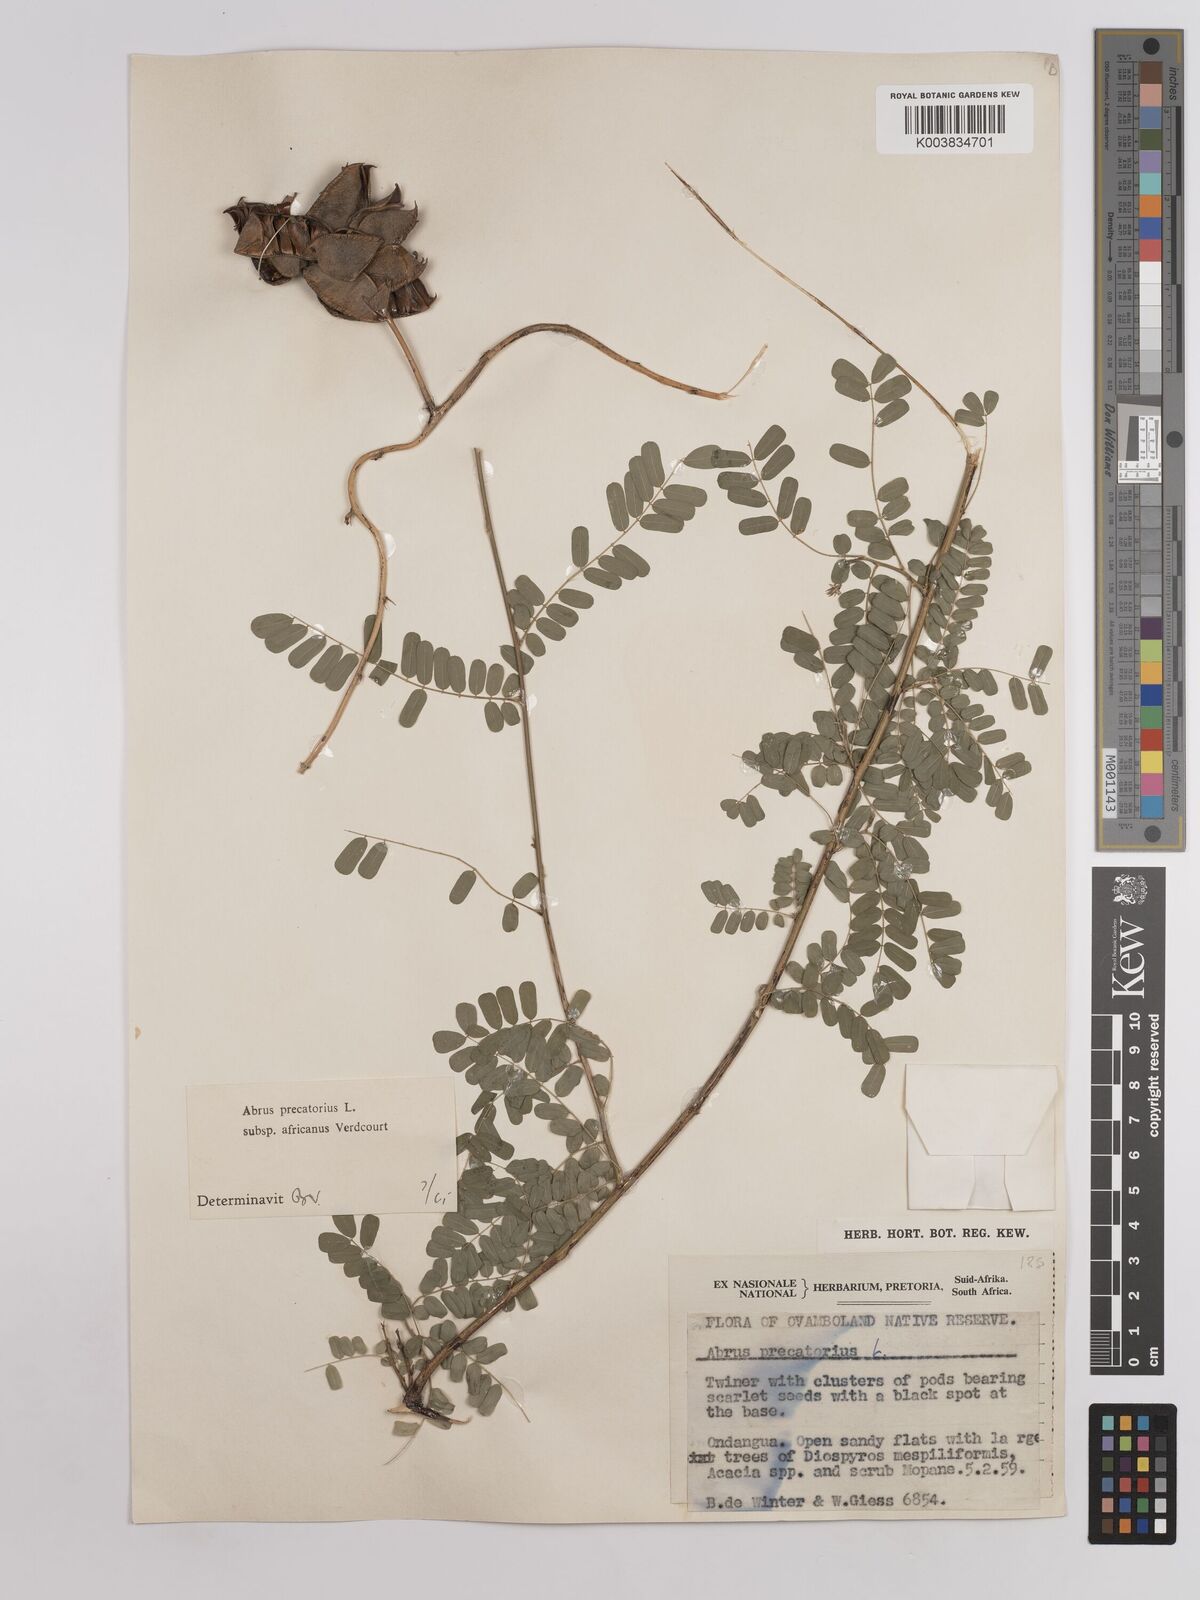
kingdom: Plantae
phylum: Tracheophyta
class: Magnoliopsida
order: Fabales
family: Fabaceae
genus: Abrus
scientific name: Abrus precatorius
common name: Rosarypea
